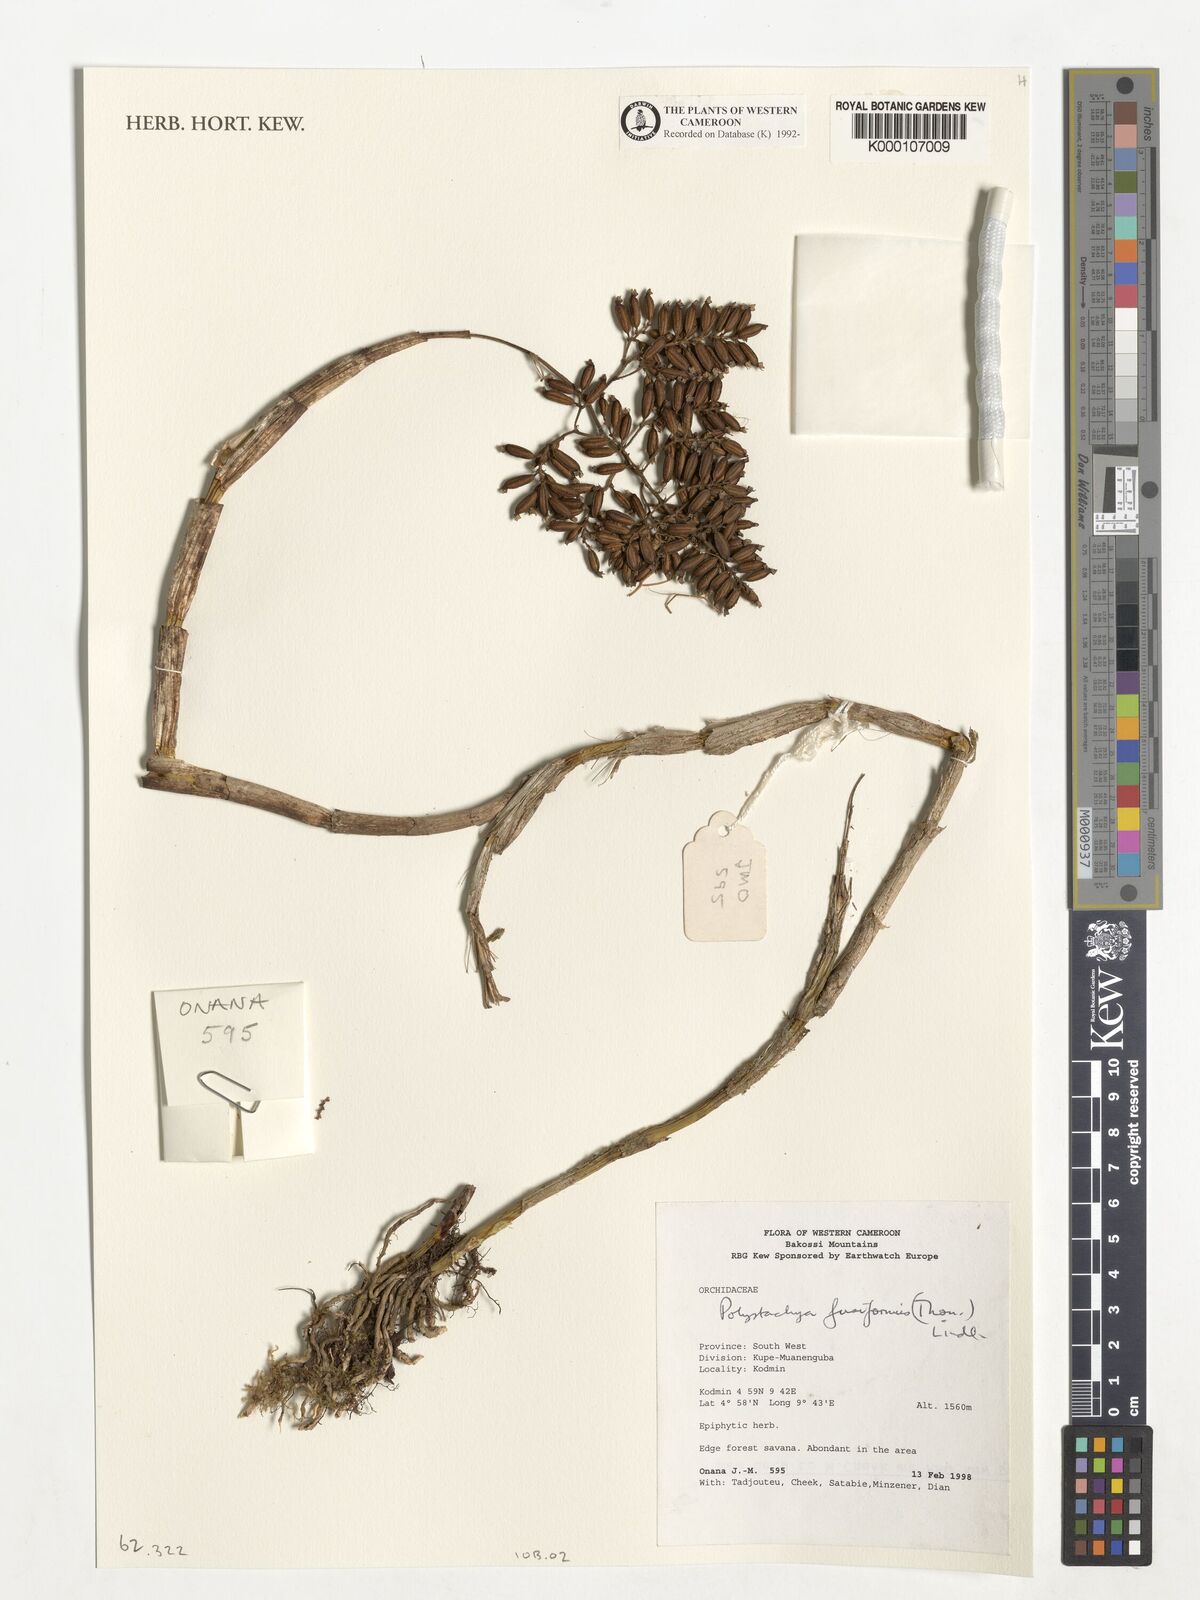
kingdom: Plantae
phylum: Tracheophyta
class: Liliopsida
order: Asparagales
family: Orchidaceae
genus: Polystachya
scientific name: Polystachya fusiformis
